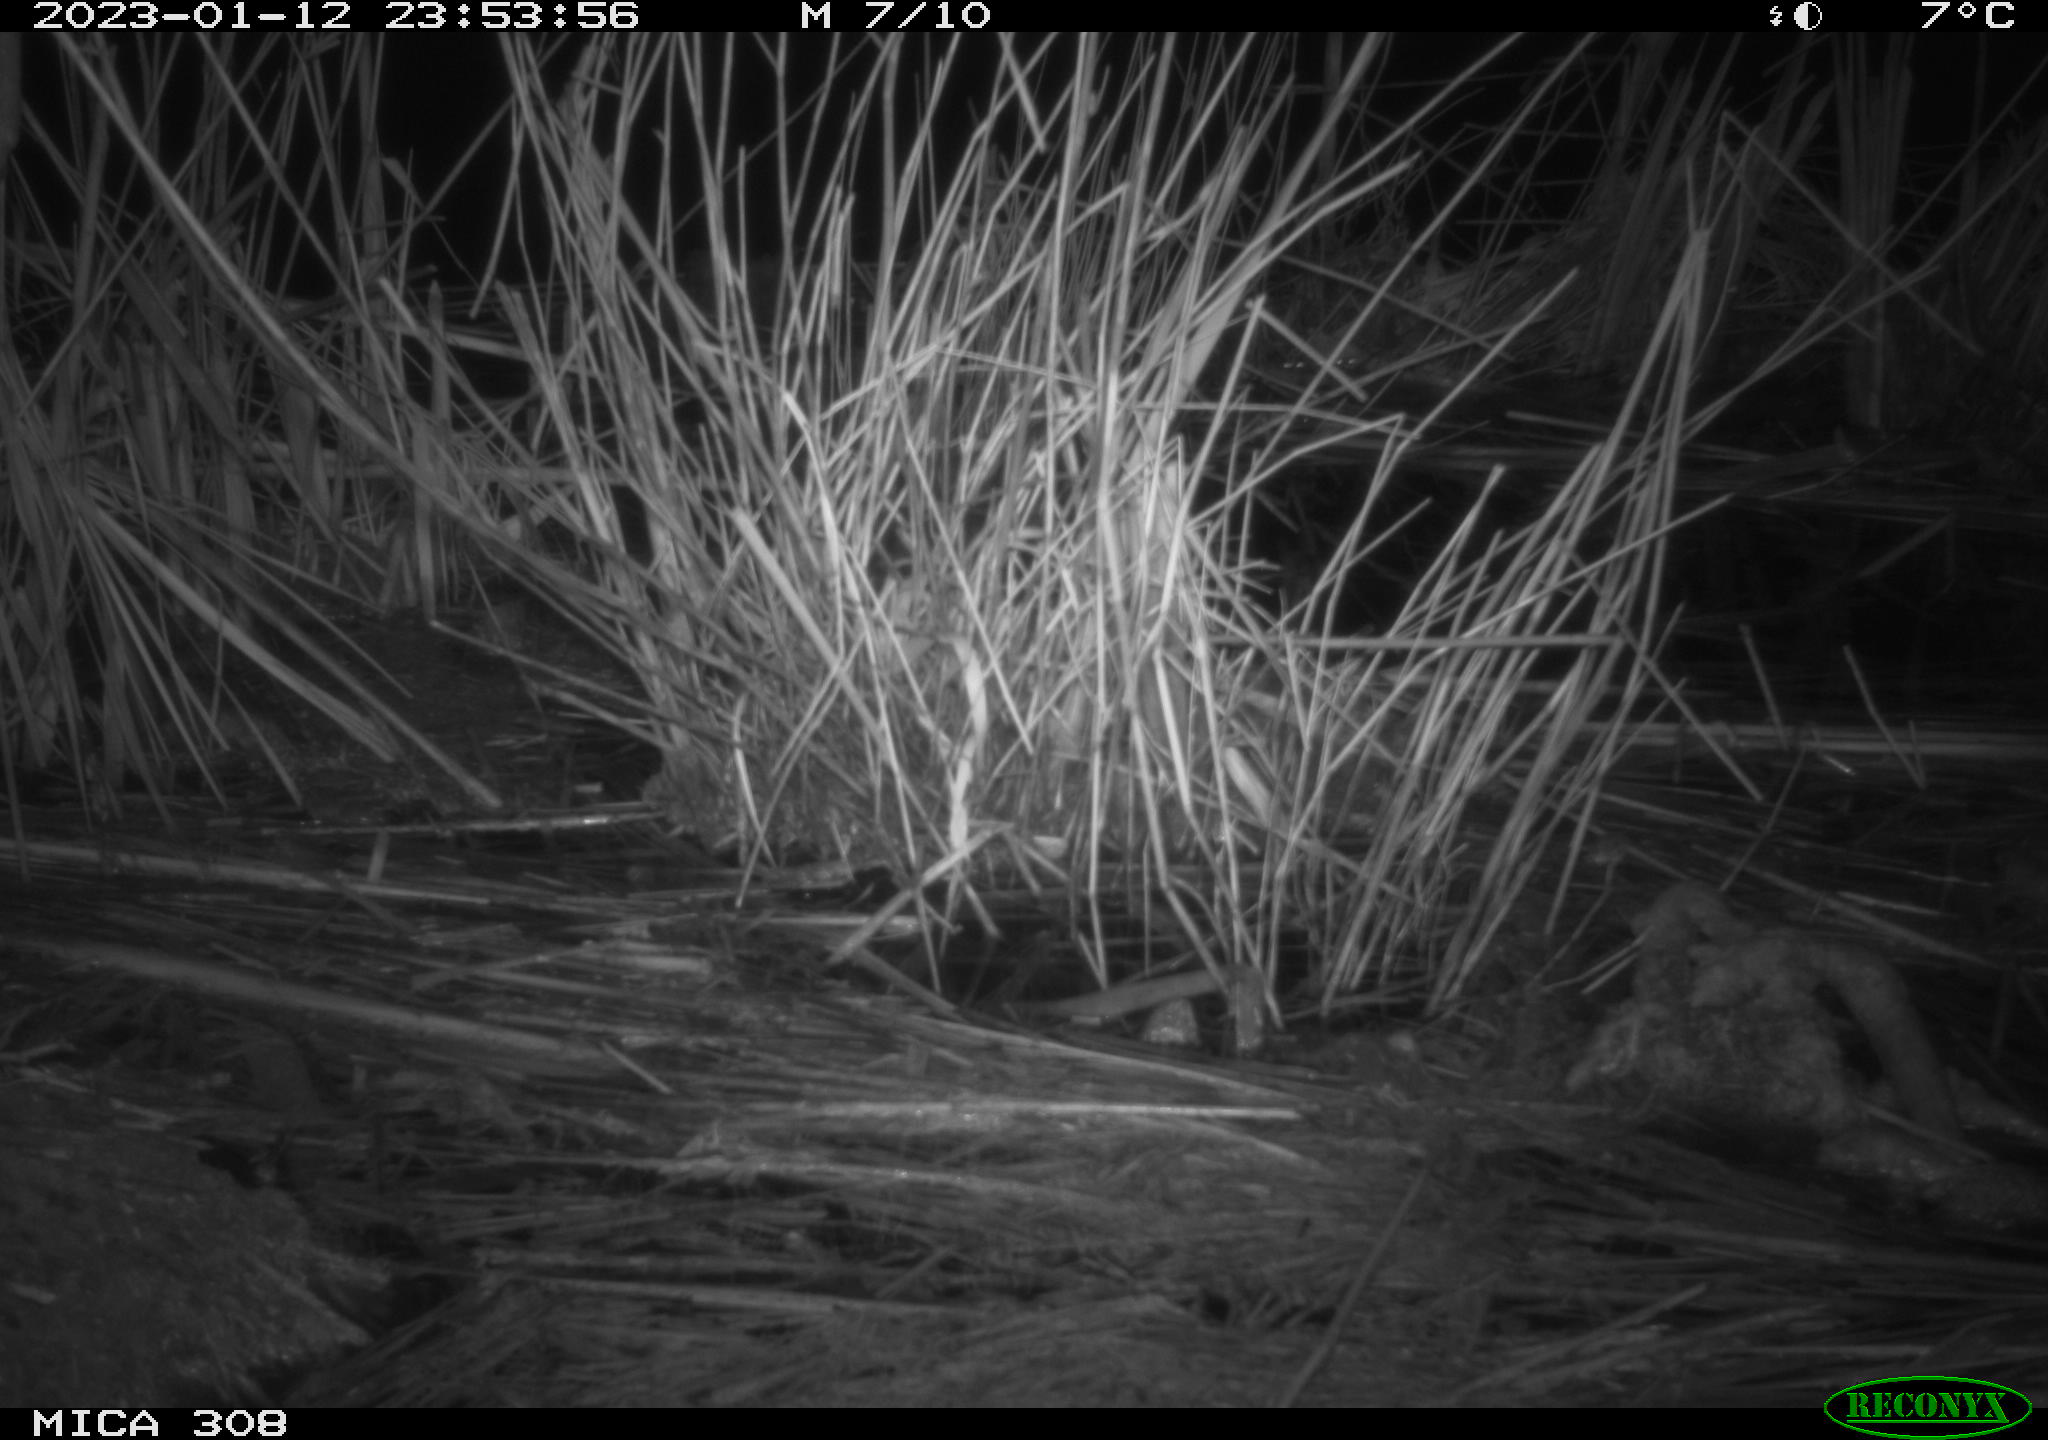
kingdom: Animalia
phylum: Chordata
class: Mammalia
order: Rodentia
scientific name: Rodentia
